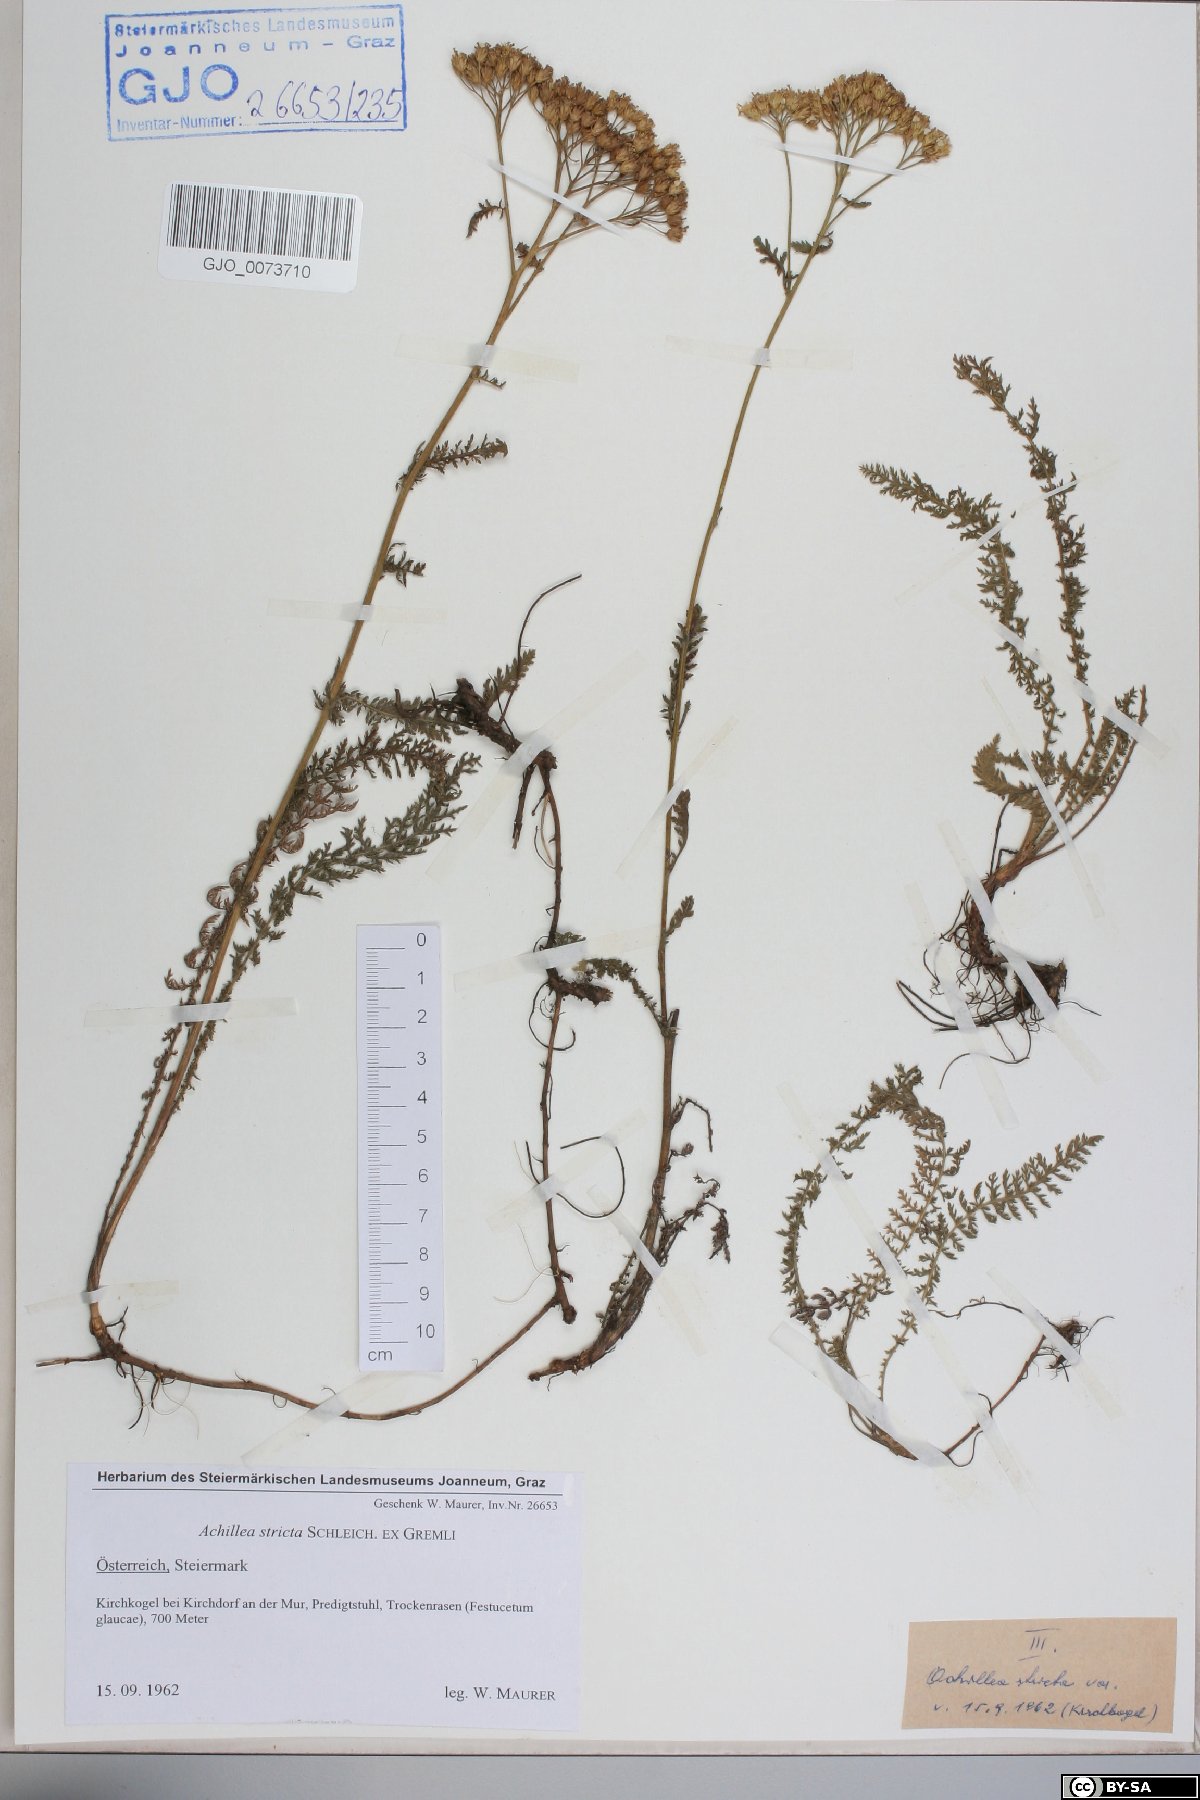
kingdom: Plantae
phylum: Tracheophyta
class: Magnoliopsida
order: Asterales
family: Asteraceae
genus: Achillea
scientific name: Achillea distans
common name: Tall yarrow
